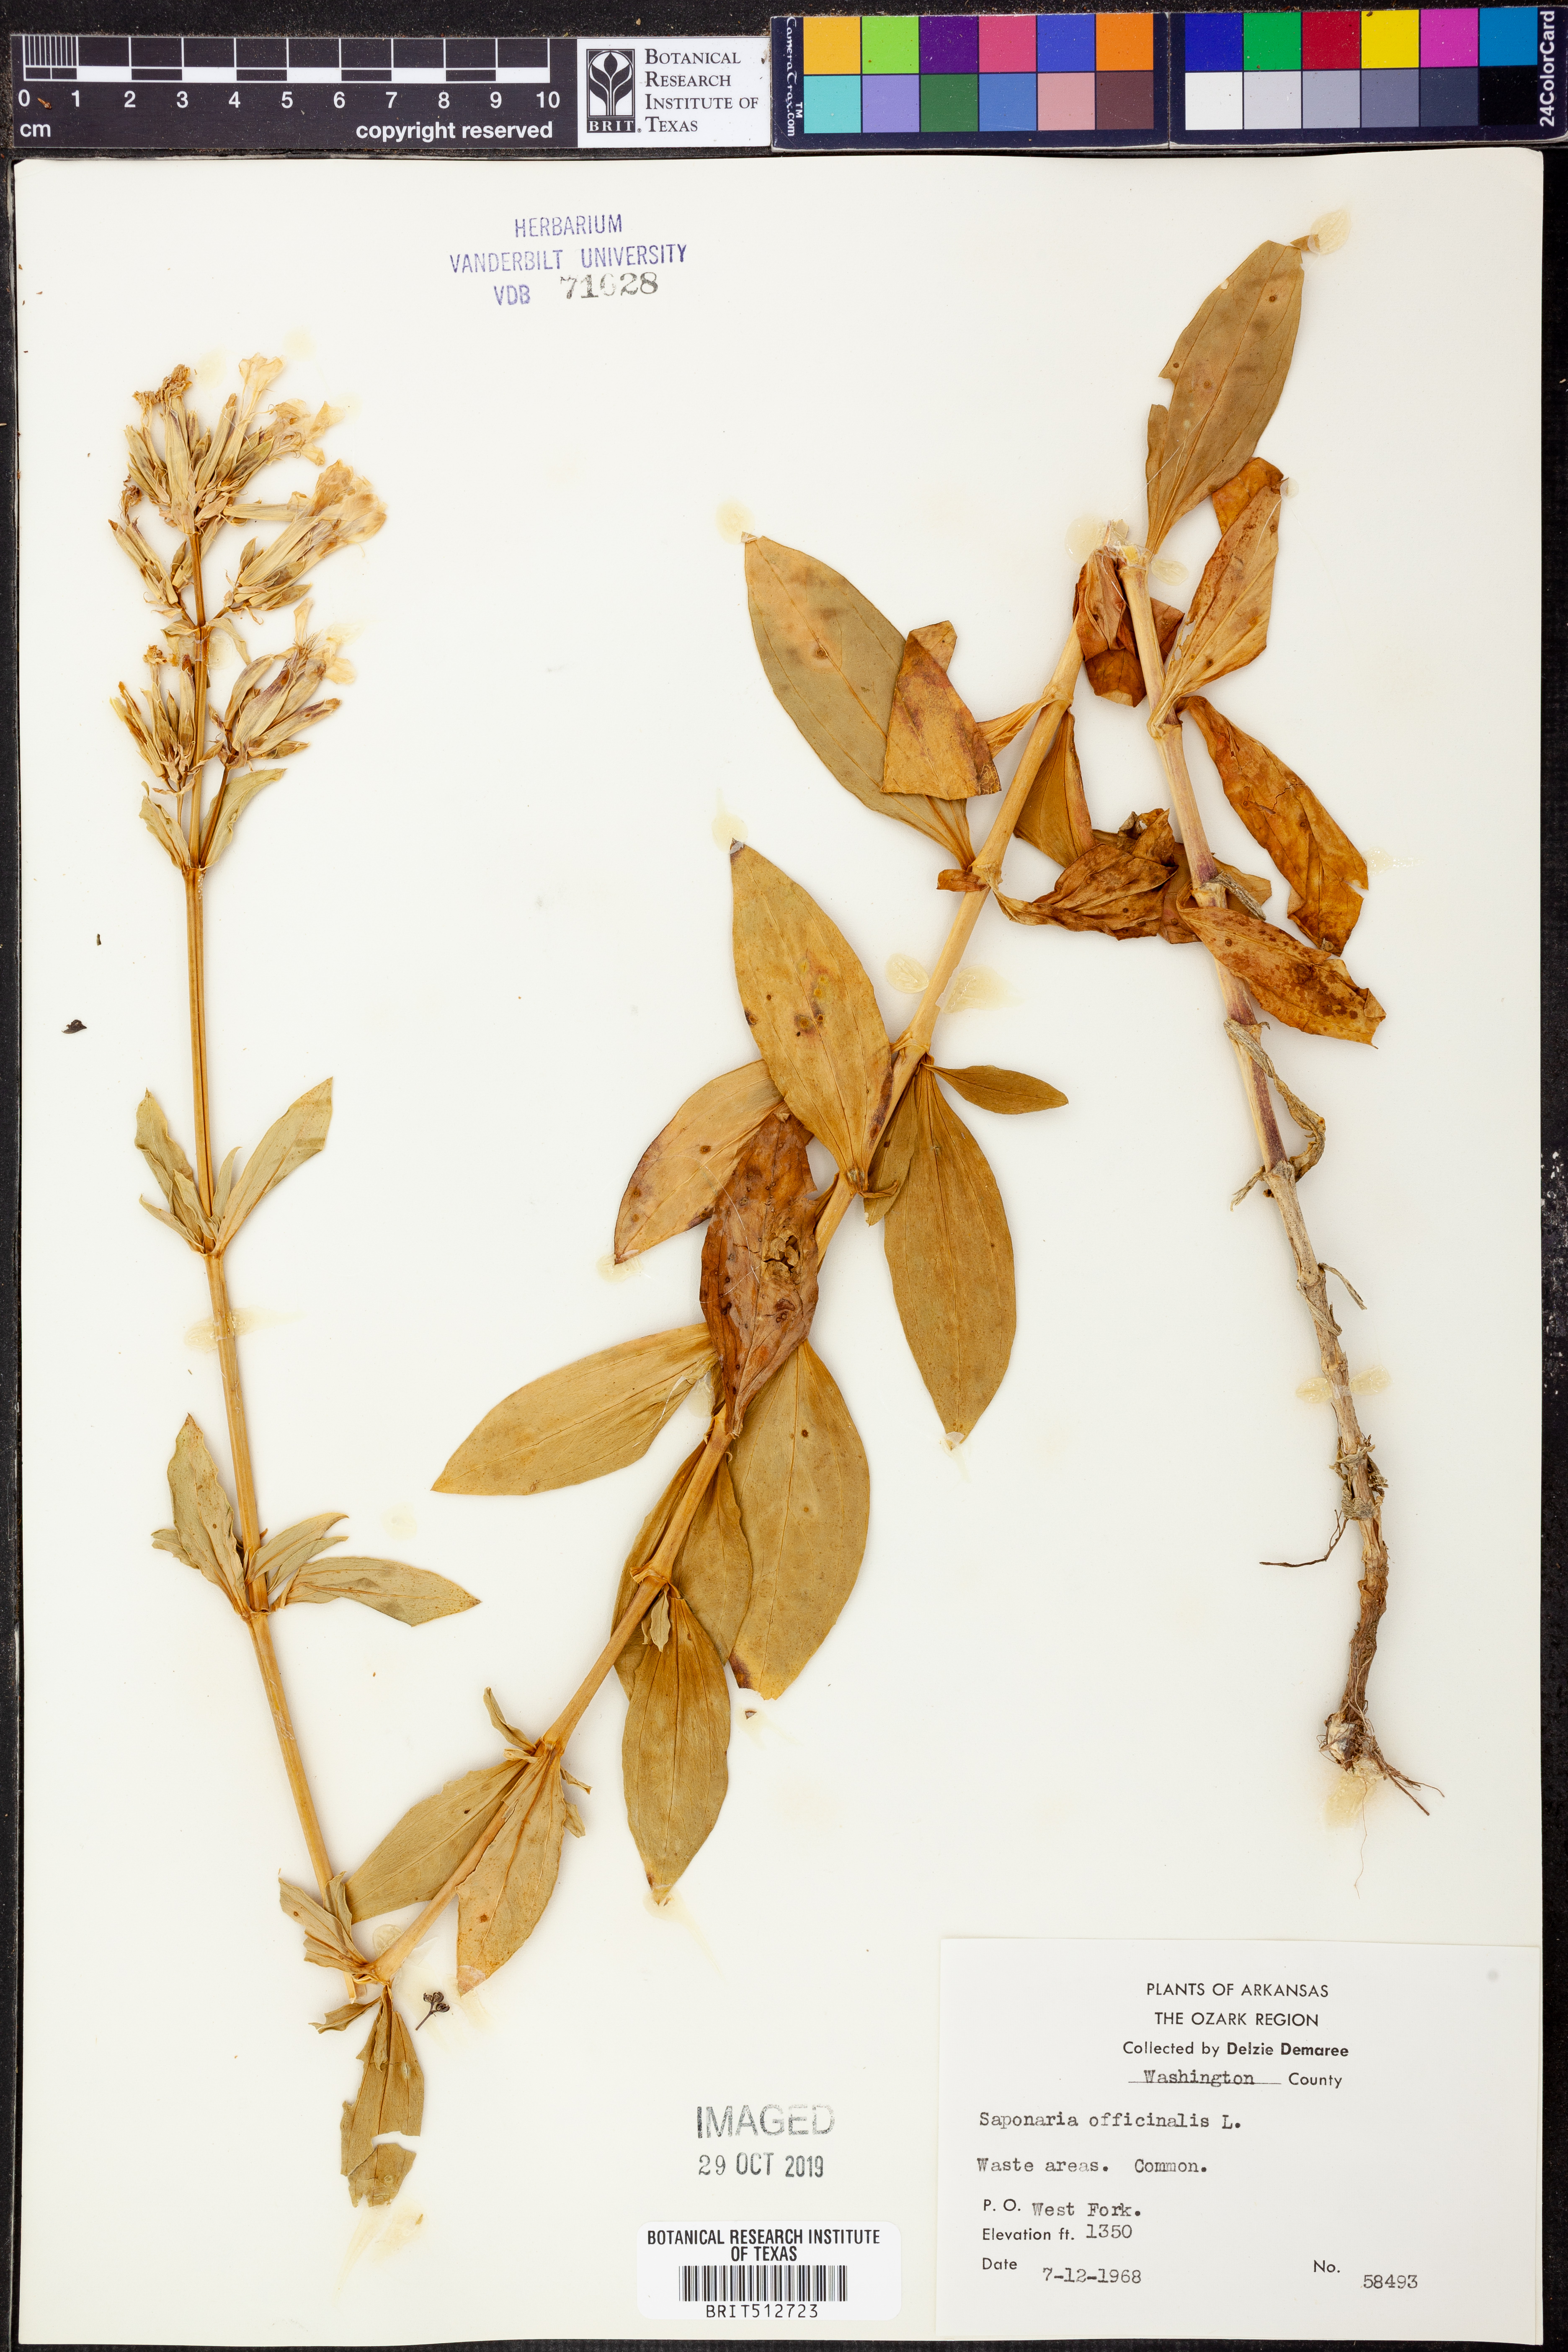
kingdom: Plantae
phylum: Tracheophyta
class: Magnoliopsida
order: Caryophyllales
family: Caryophyllaceae
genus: Saponaria
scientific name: Saponaria officinalis
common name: Soapwort
